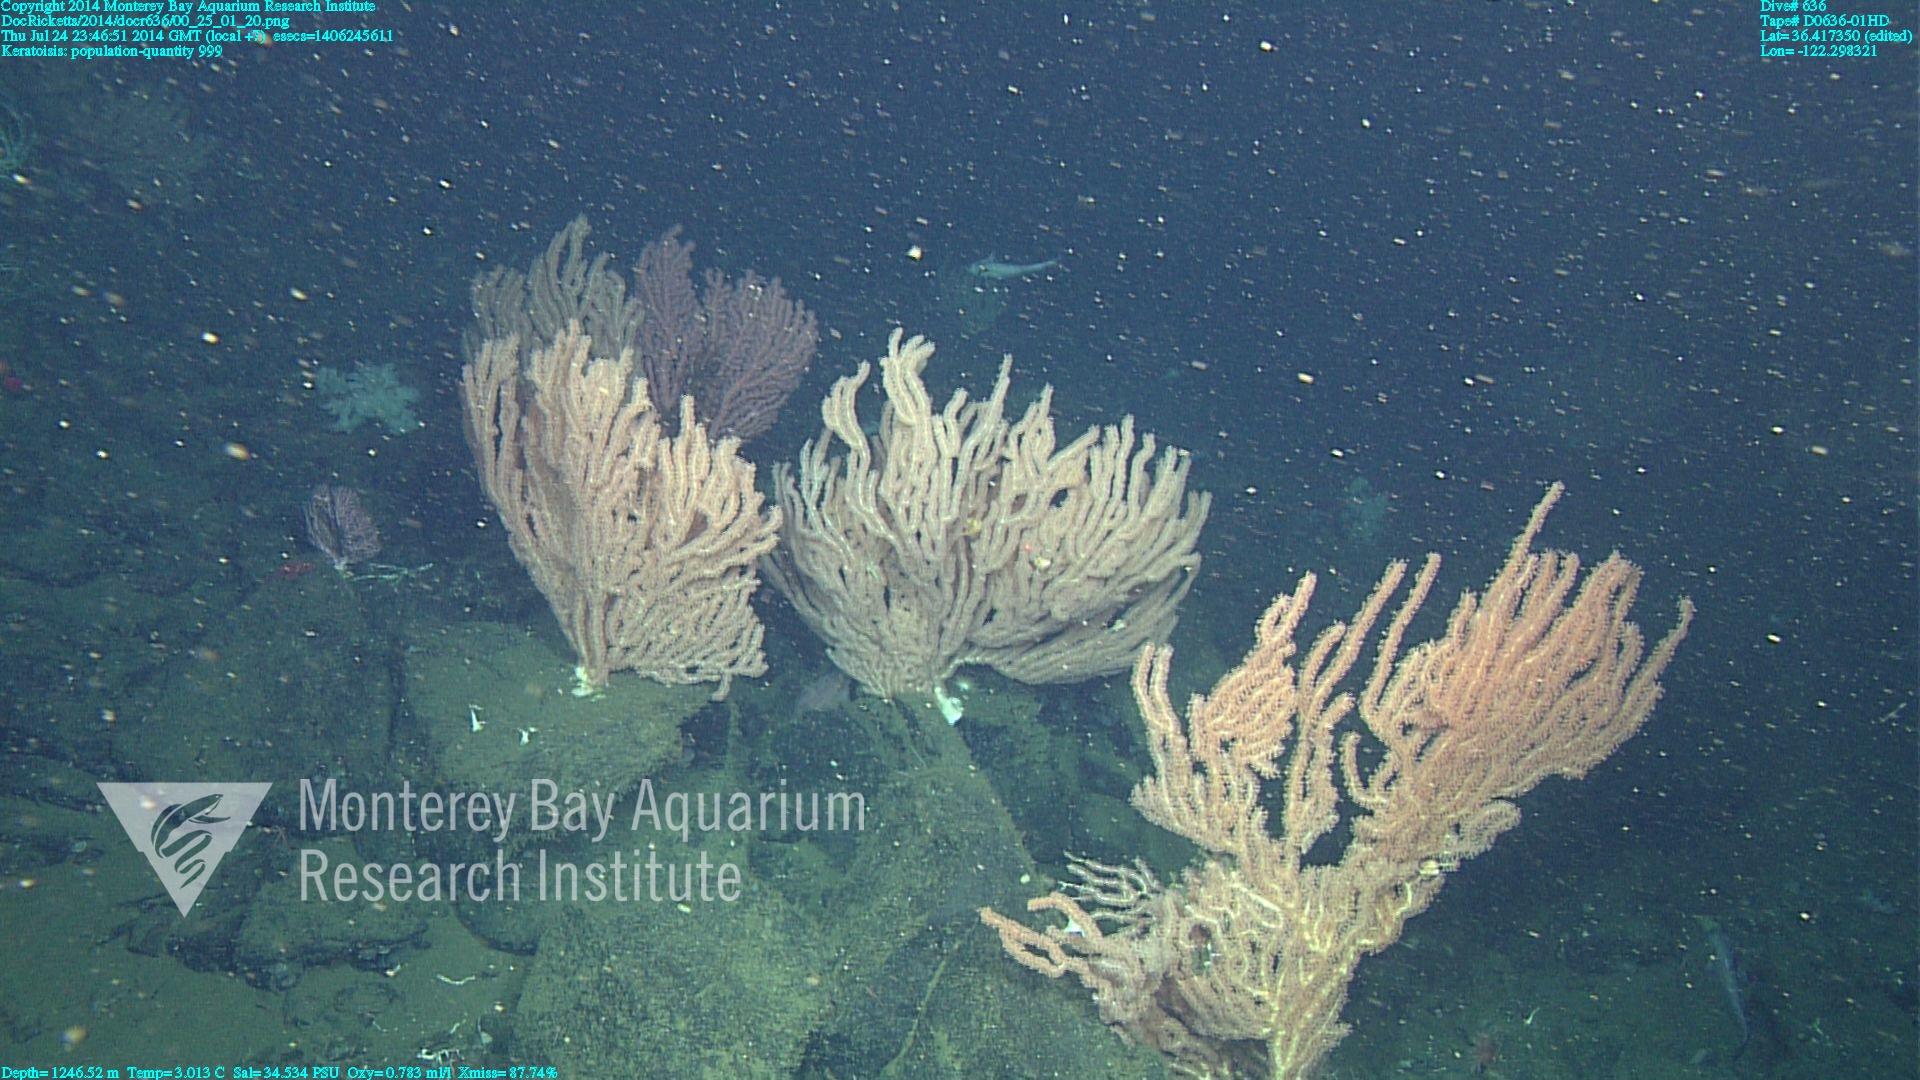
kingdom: Animalia
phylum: Cnidaria
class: Anthozoa
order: Scleralcyonacea
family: Keratoisididae
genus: Keratoisis
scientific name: Keratoisis
